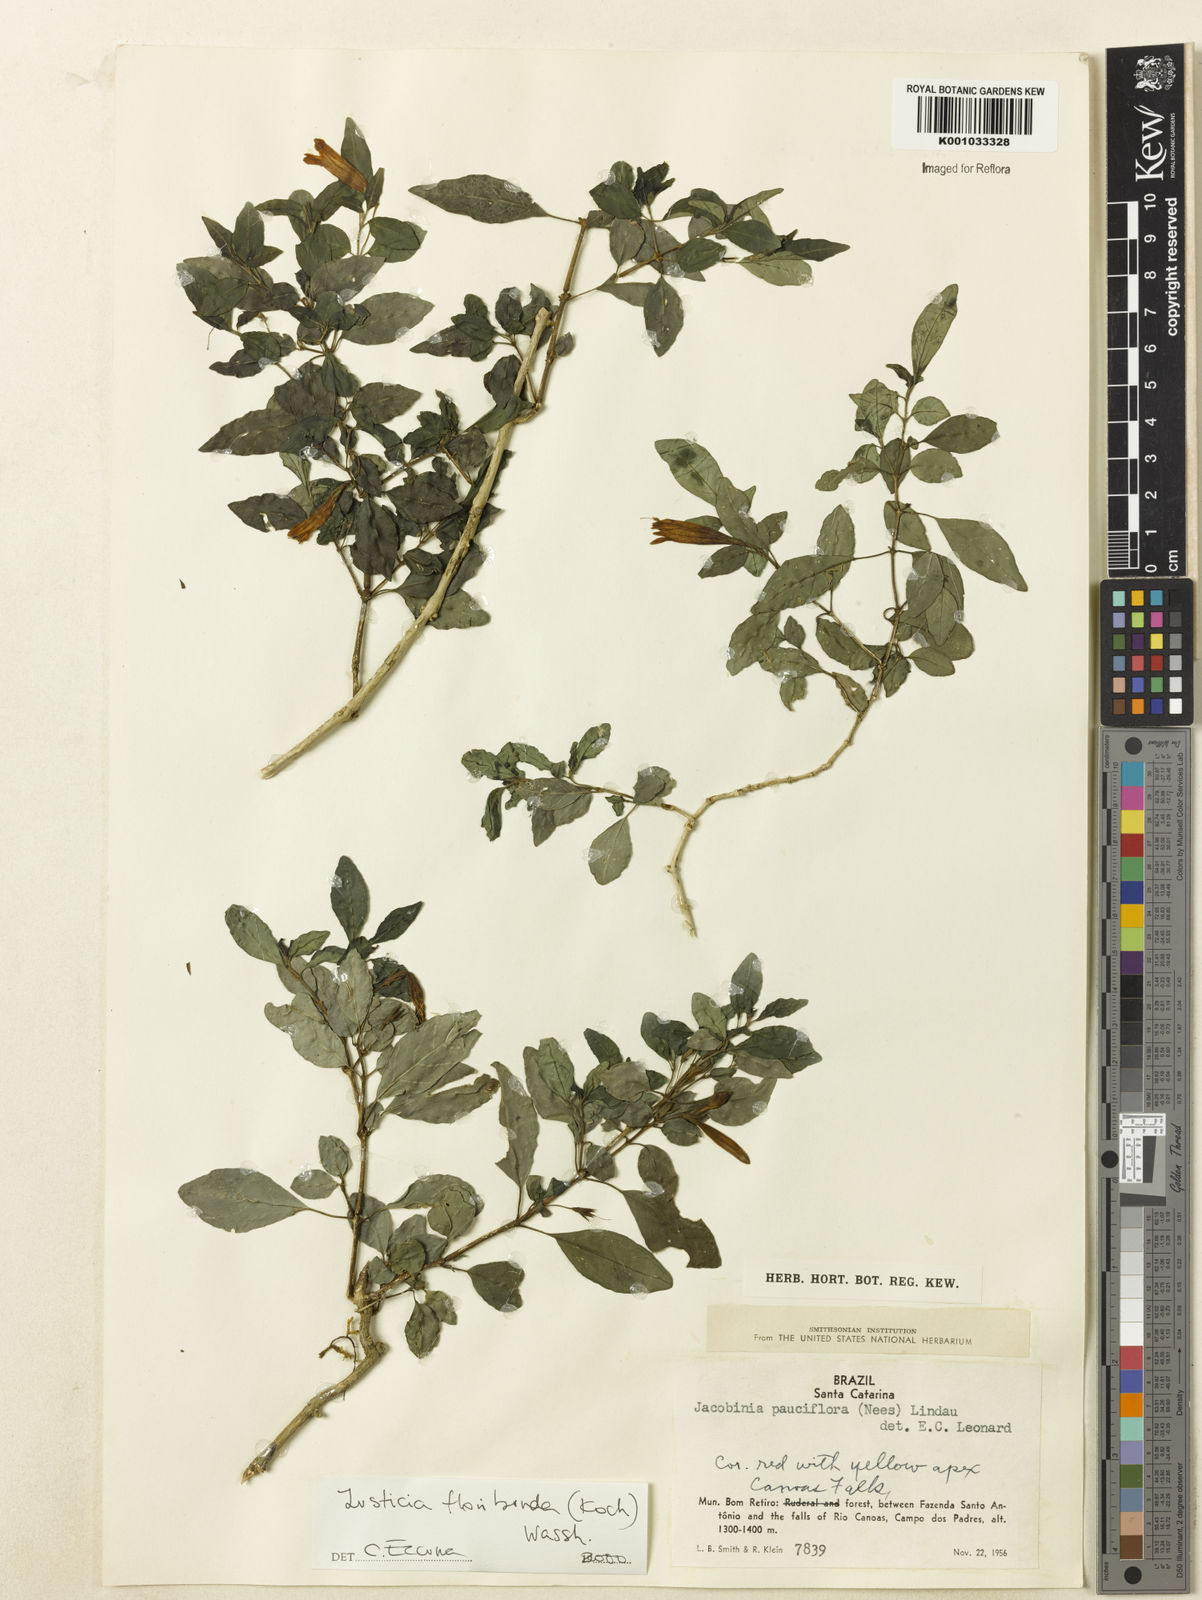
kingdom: Plantae
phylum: Tracheophyta
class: Magnoliopsida
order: Lamiales
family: Acanthaceae
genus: Justicia
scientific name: Justicia floribunda
